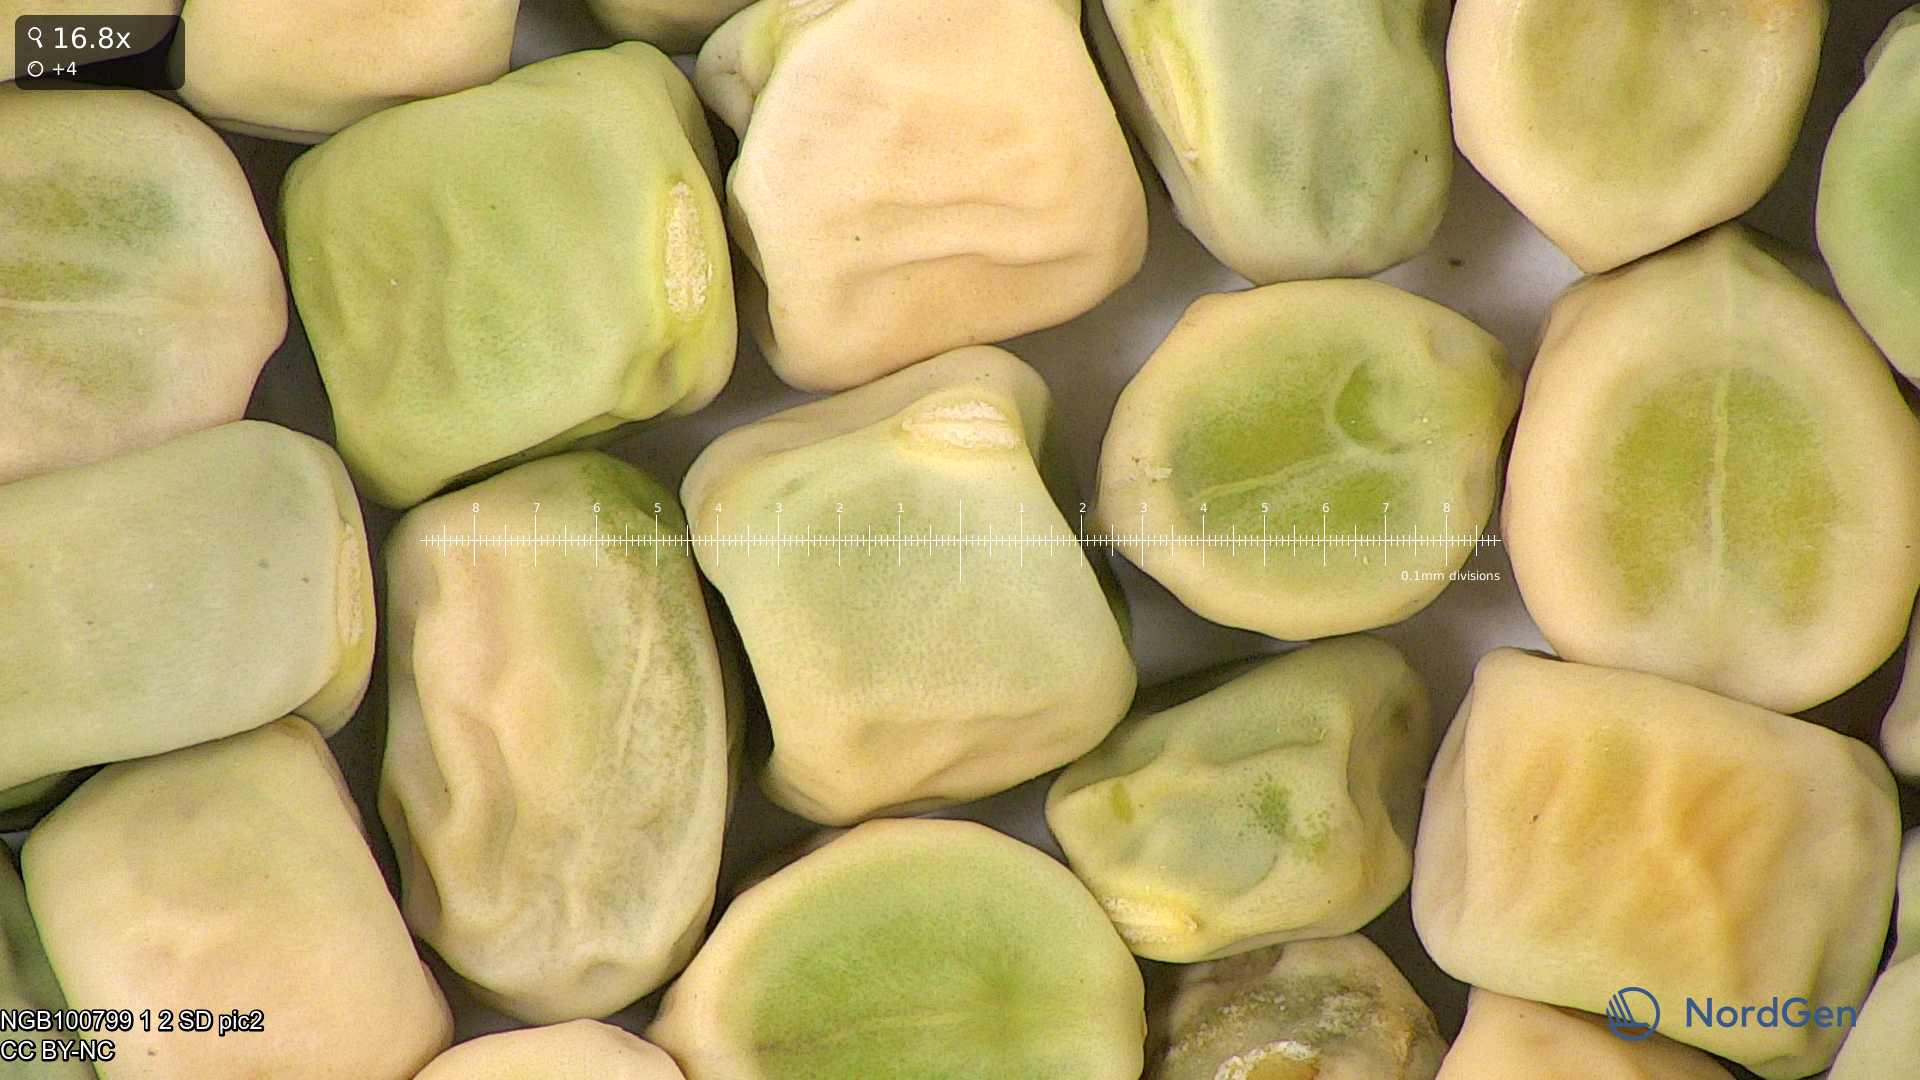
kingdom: Plantae
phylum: Tracheophyta
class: Magnoliopsida
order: Fabales
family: Fabaceae
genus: Lathyrus
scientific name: Lathyrus oleraceus
